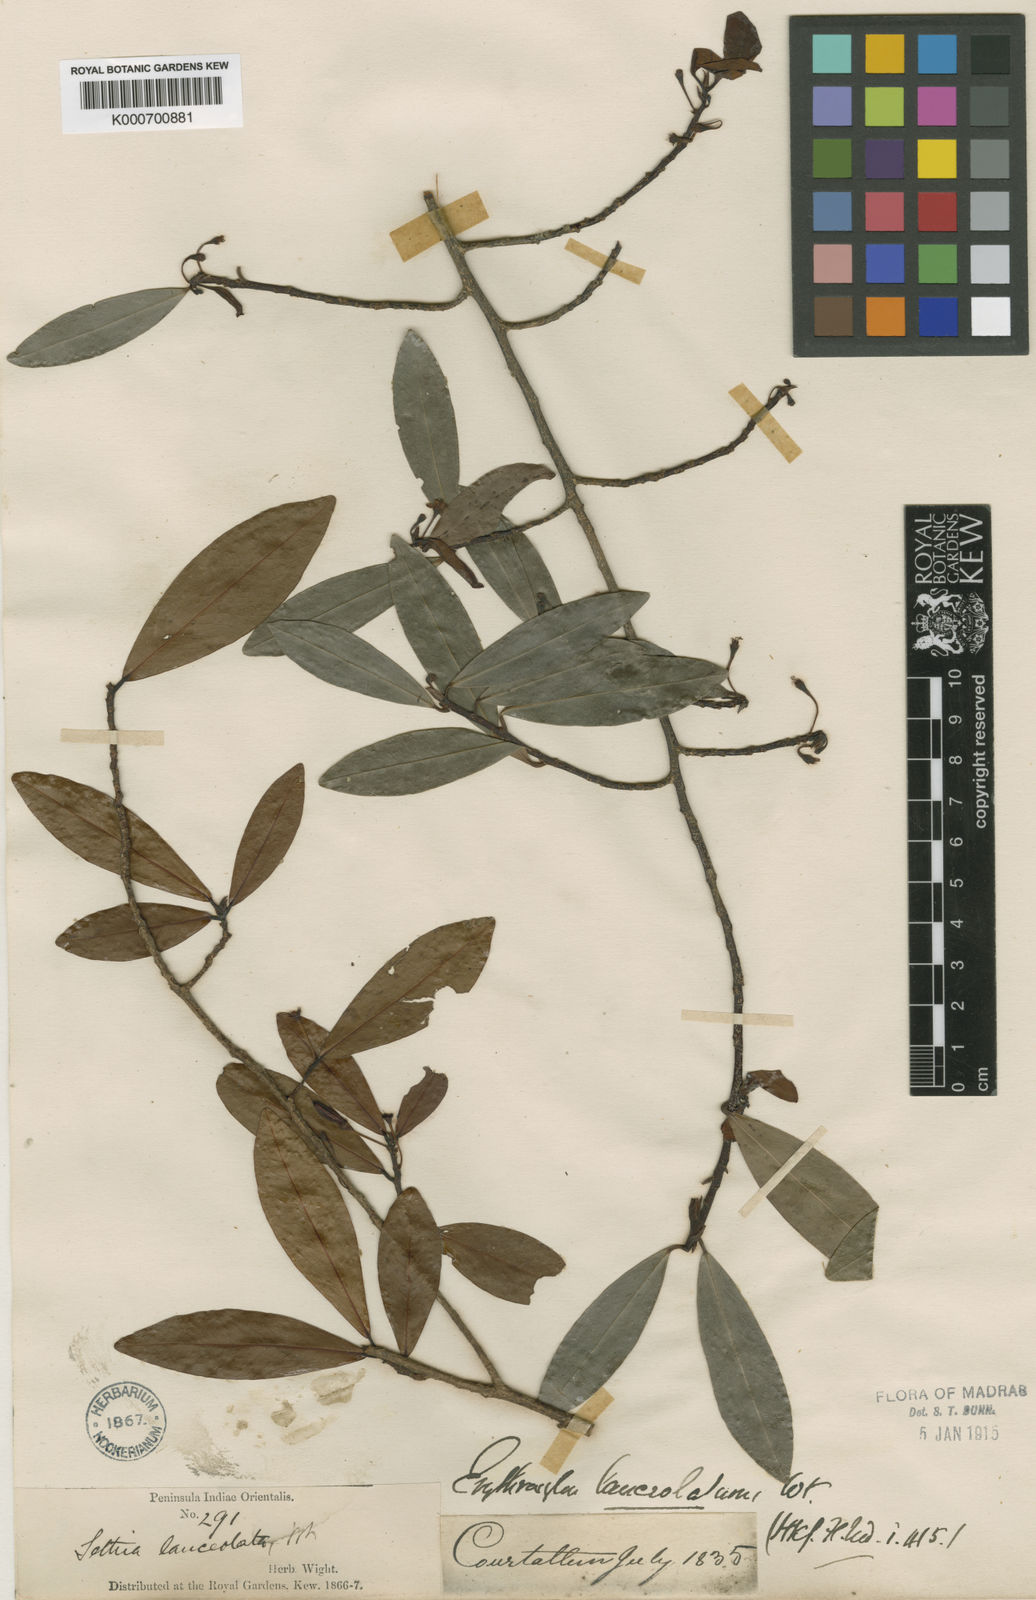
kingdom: Plantae
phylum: Tracheophyta
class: Magnoliopsida
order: Malpighiales
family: Erythroxylaceae
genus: Erythroxylum
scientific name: Erythroxylum lanceolatum
